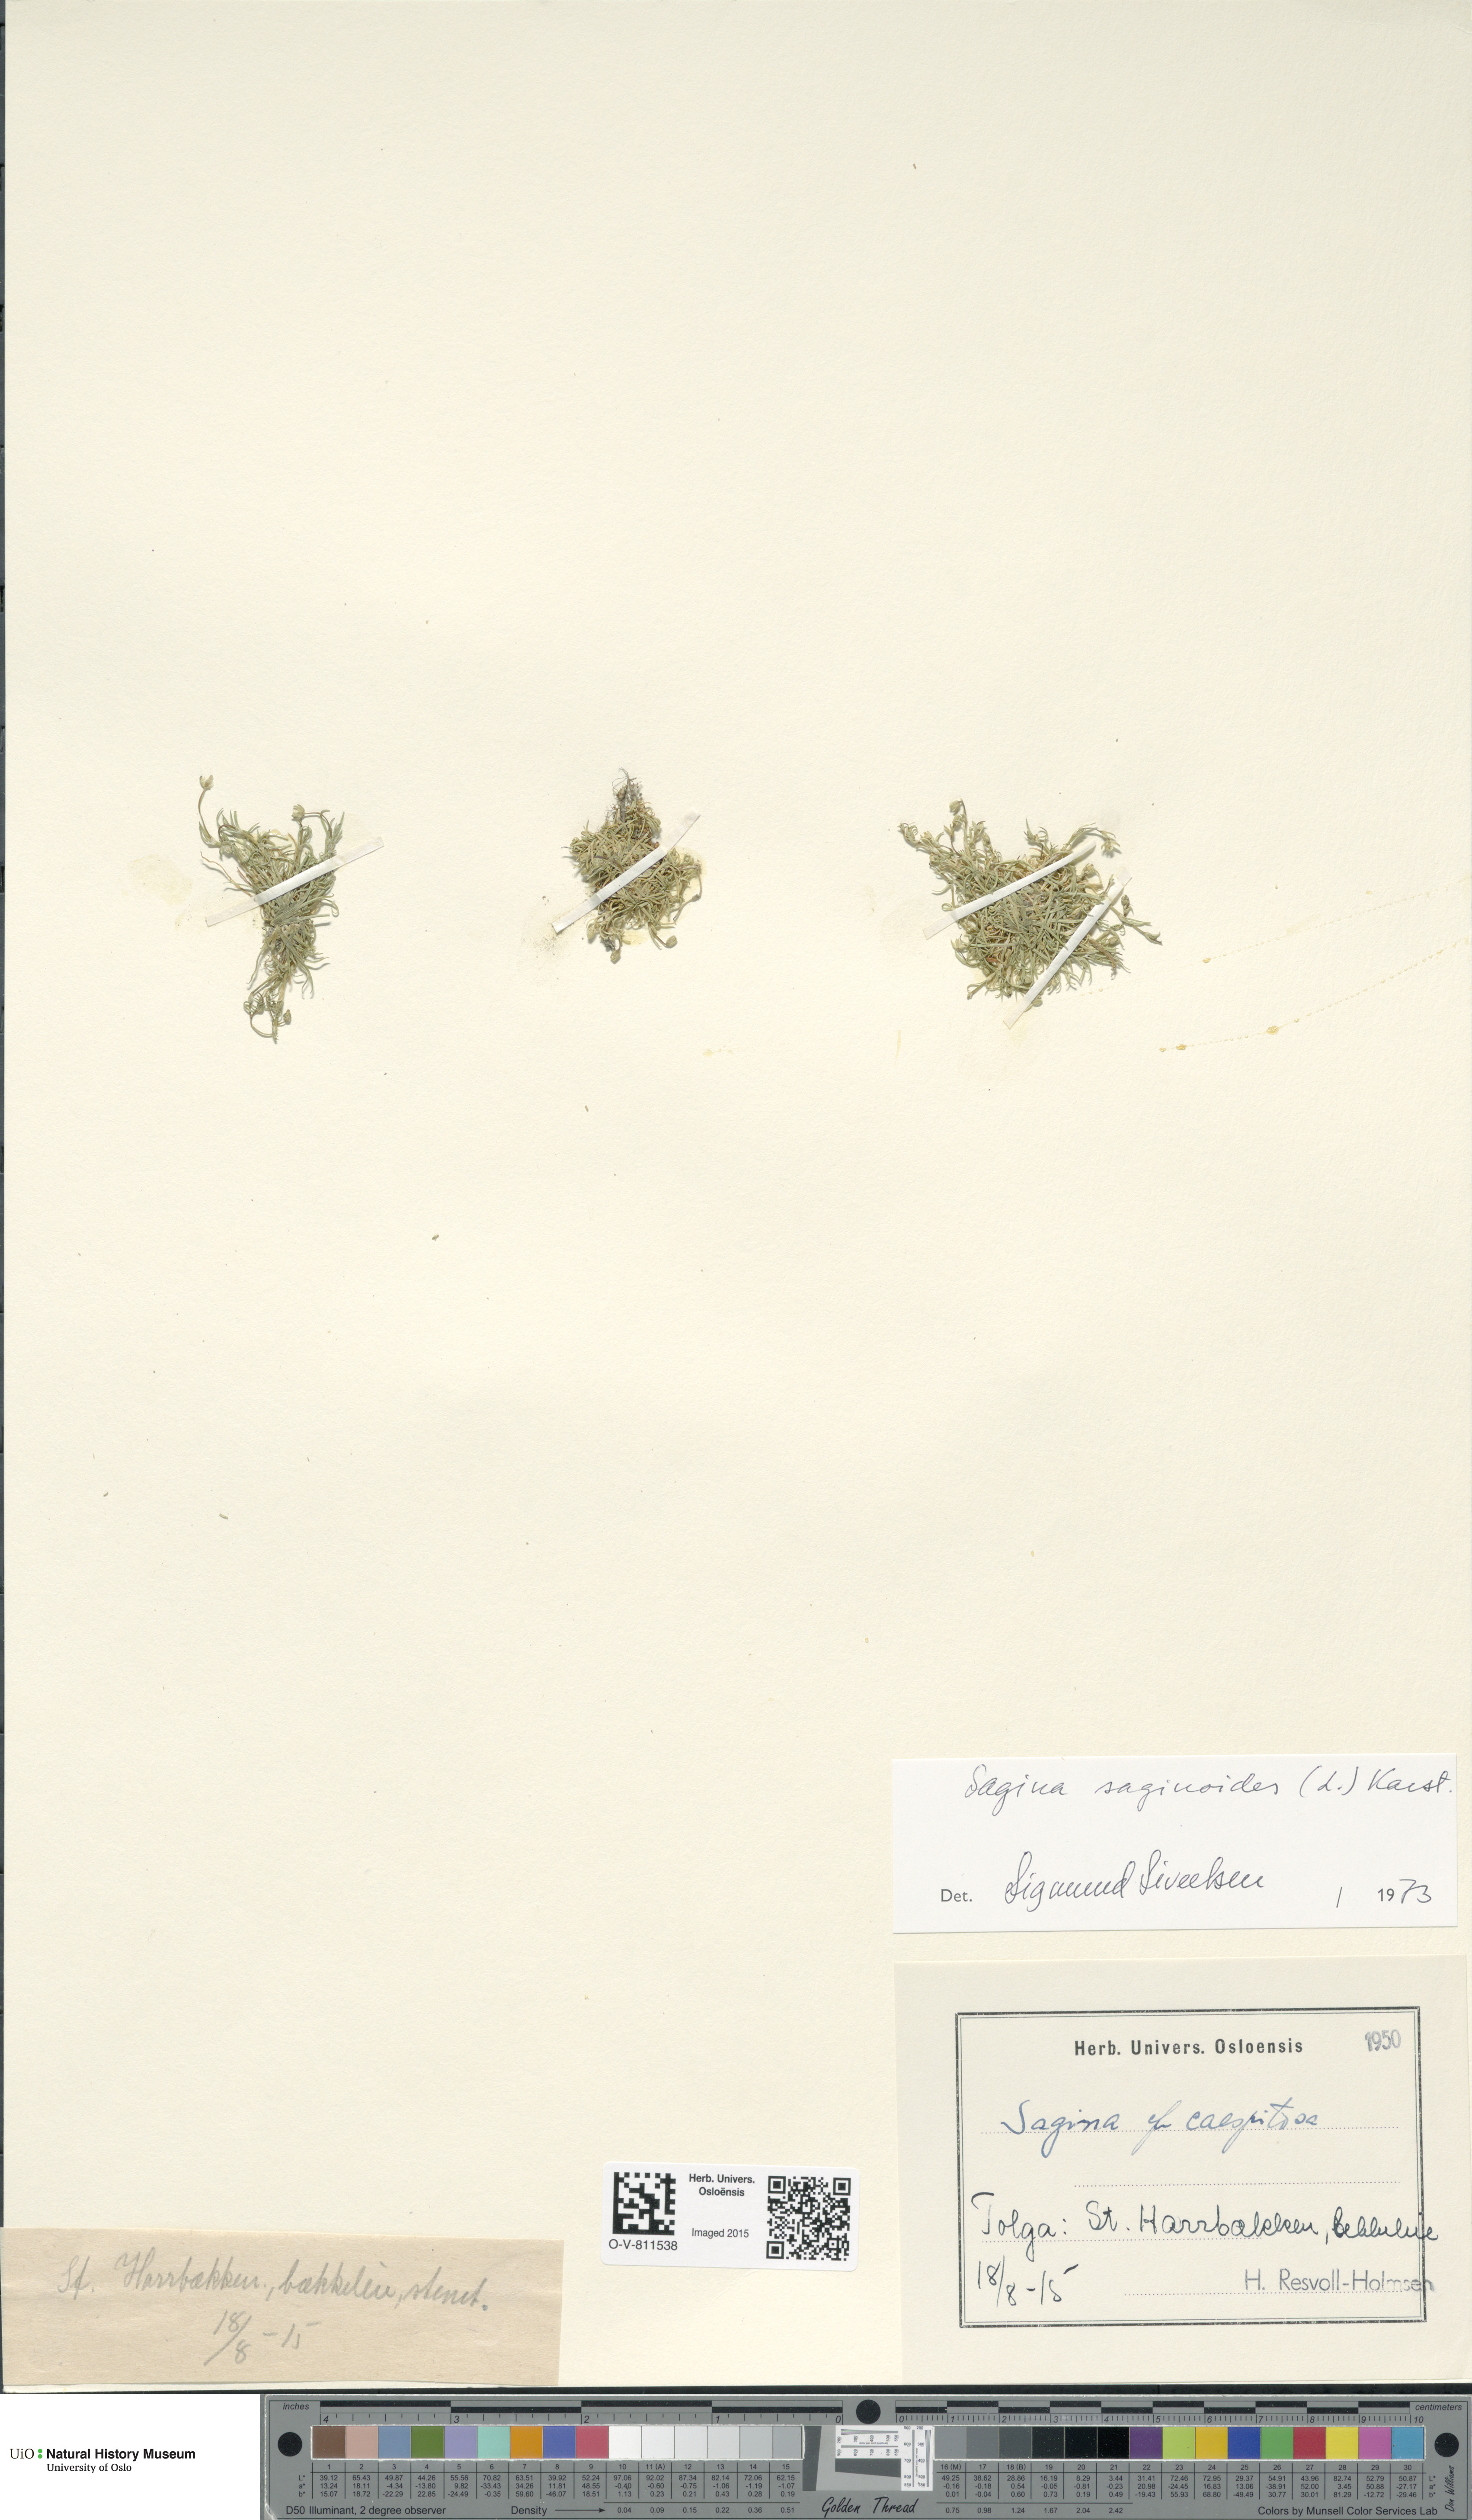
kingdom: Plantae
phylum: Tracheophyta
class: Magnoliopsida
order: Caryophyllales
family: Caryophyllaceae
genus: Sagina
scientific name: Sagina saginoides
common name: Alpine pearlwort
